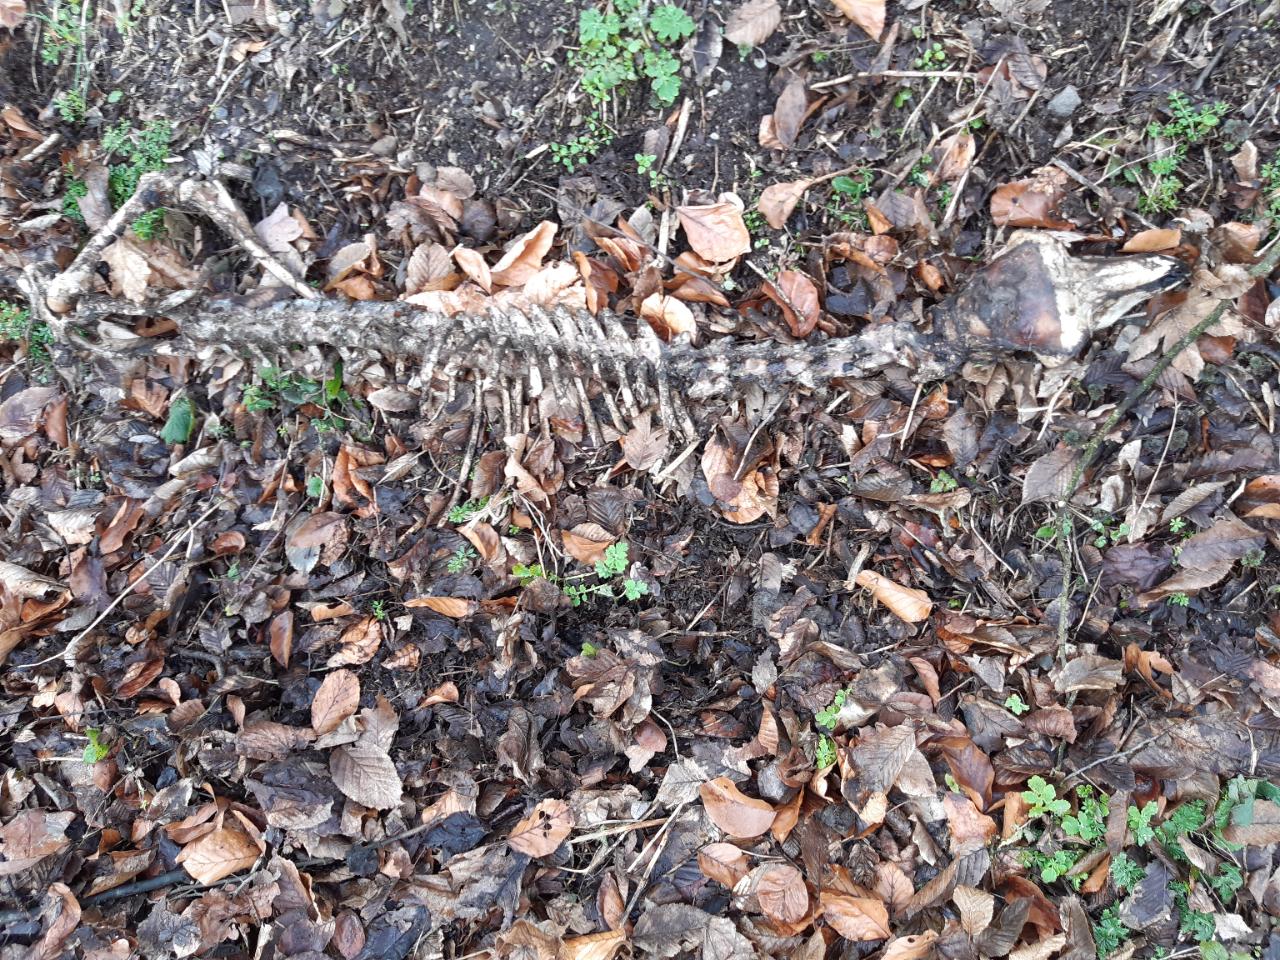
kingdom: Animalia
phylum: Chordata
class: Mammalia
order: Artiodactyla
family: Cervidae
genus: Capreolus
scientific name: Capreolus capreolus
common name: Western roe deer
